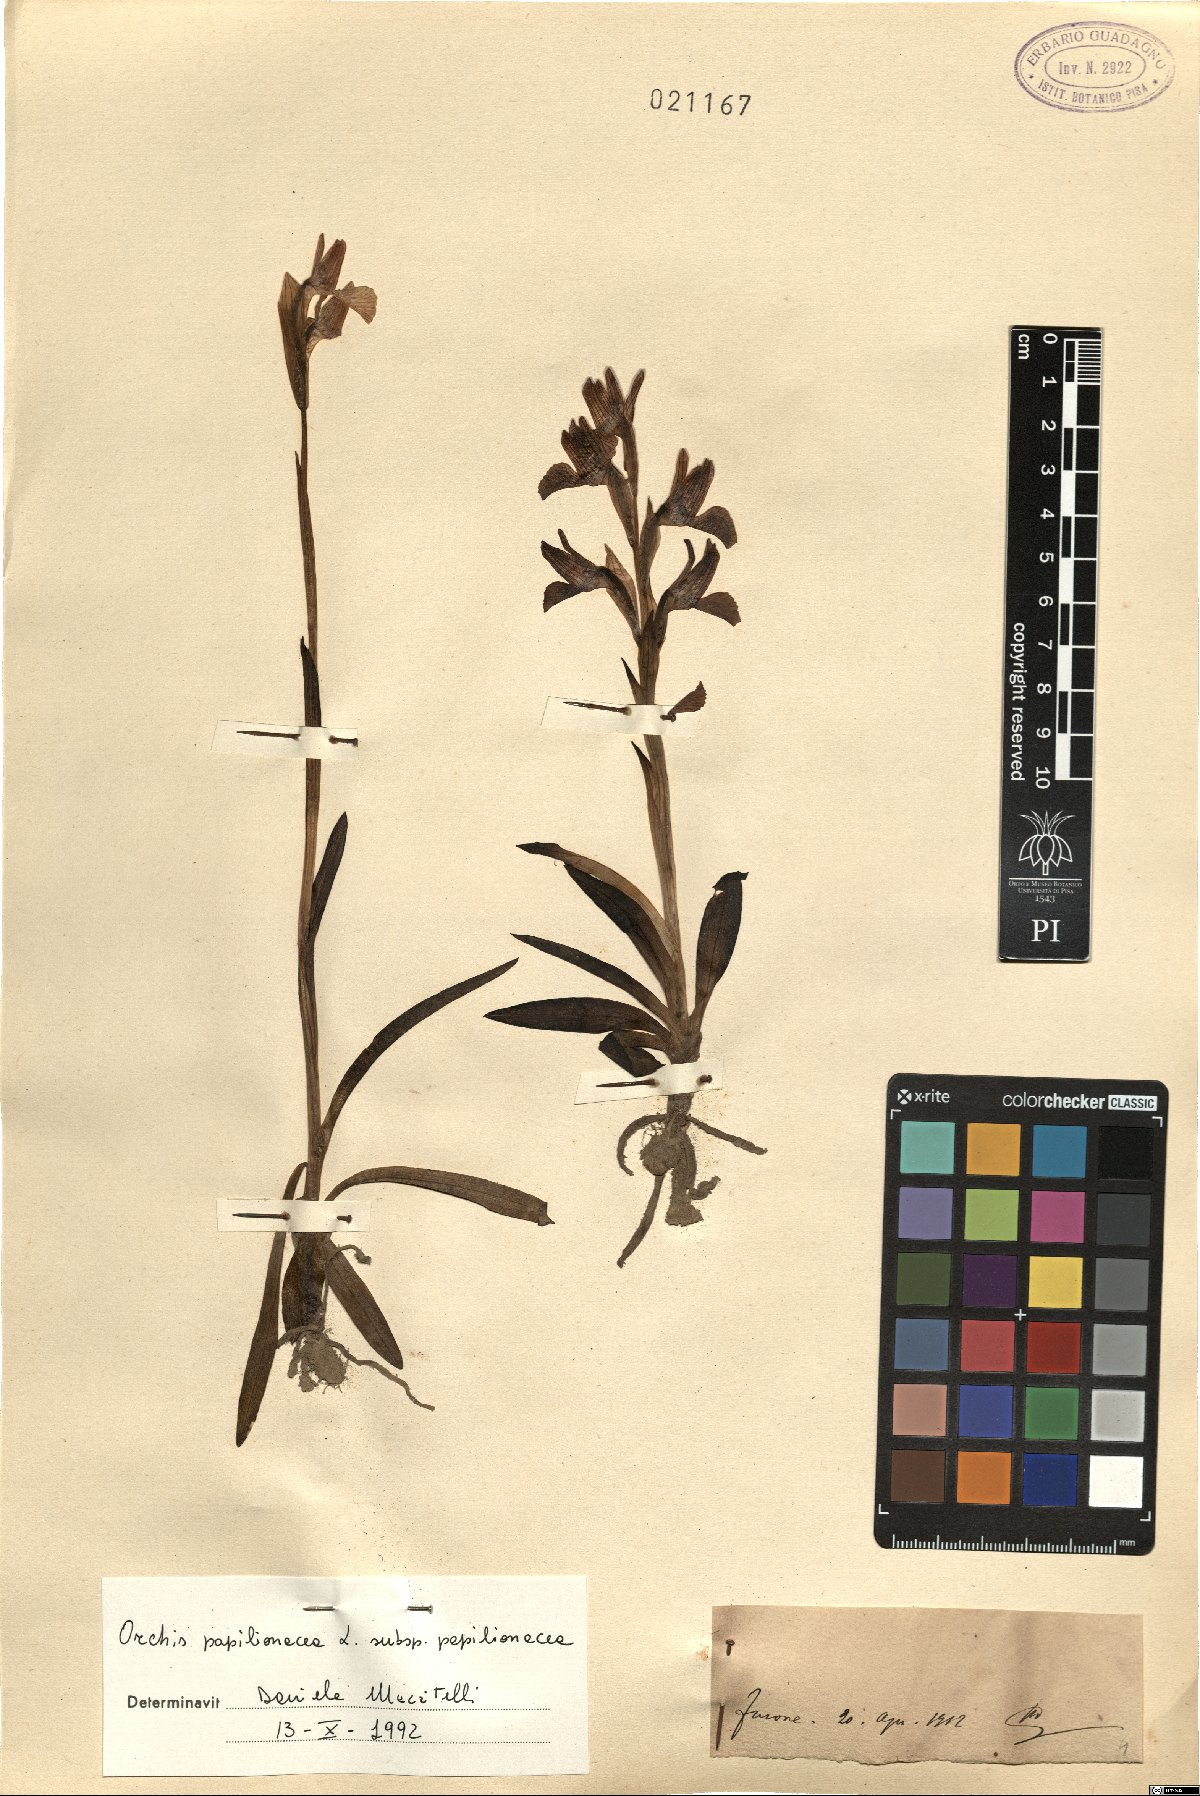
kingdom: Plantae
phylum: Tracheophyta
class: Liliopsida
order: Asparagales
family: Orchidaceae
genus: Anacamptis
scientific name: Anacamptis papilionacea
